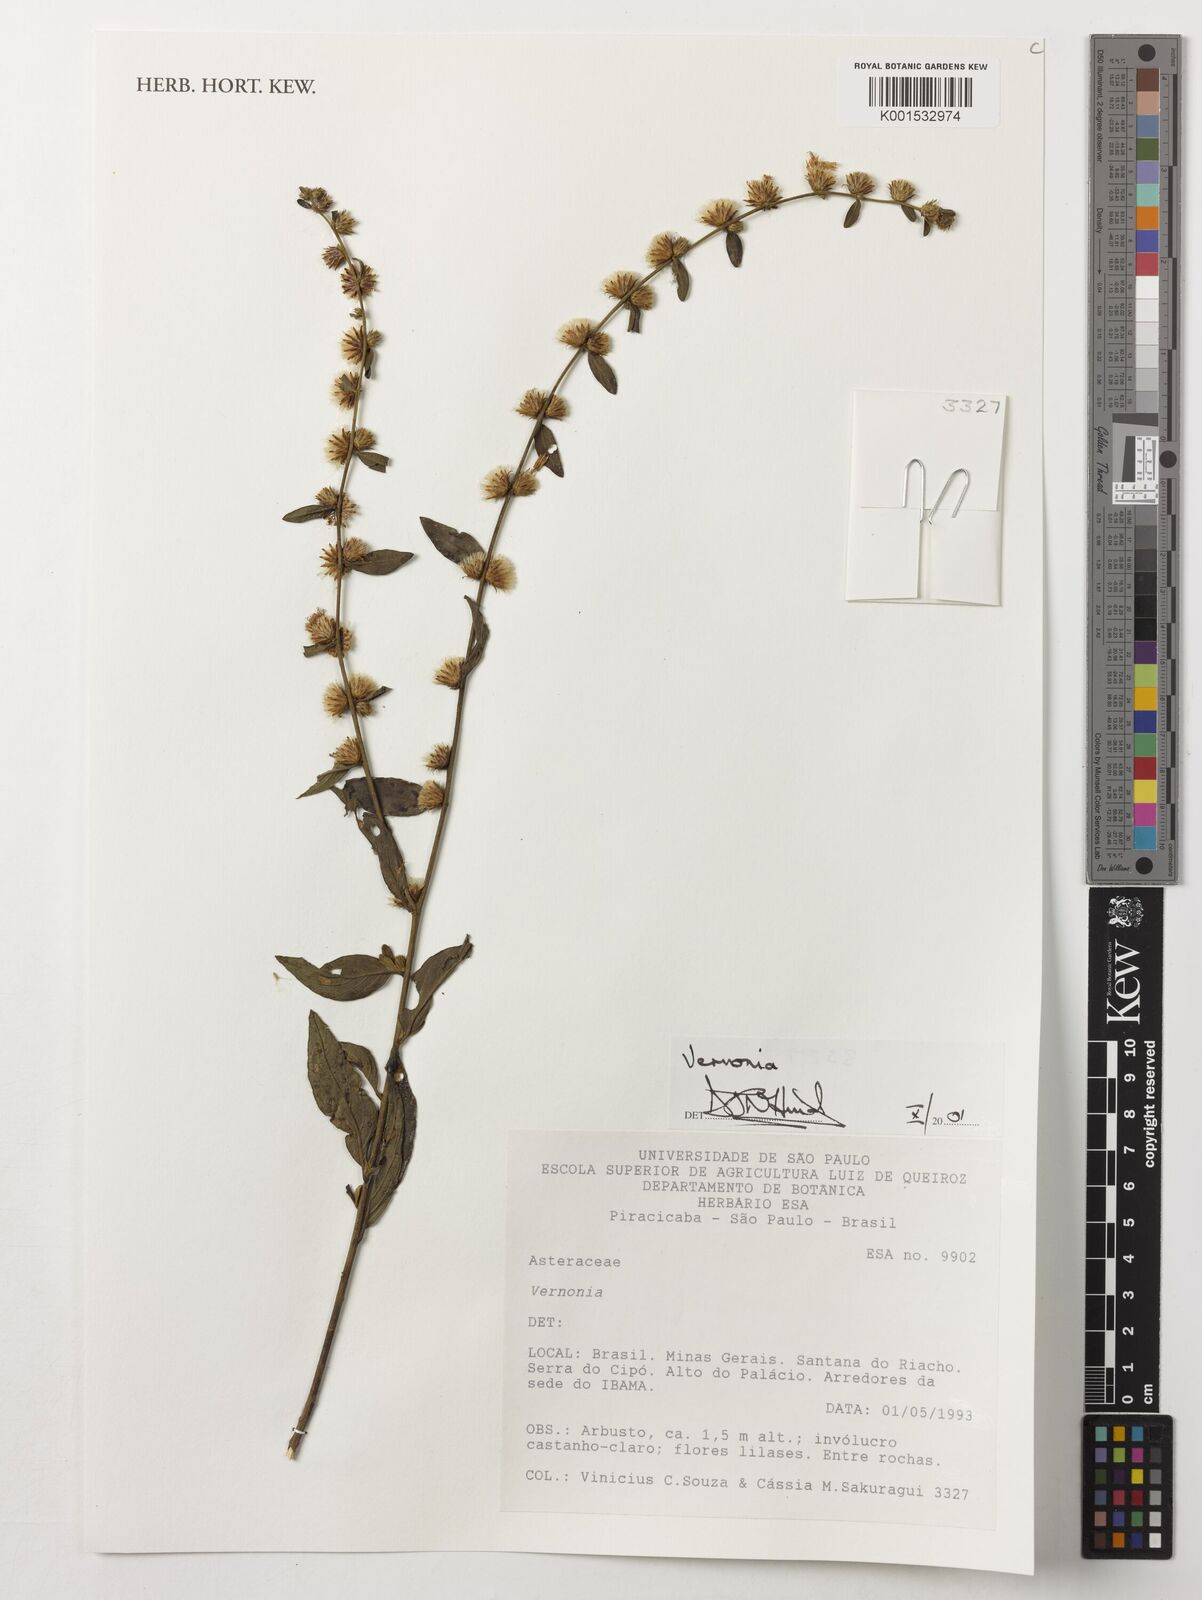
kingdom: Plantae
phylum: Tracheophyta
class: Magnoliopsida
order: Asterales
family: Asteraceae
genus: Vernonia
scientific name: Vernonia
